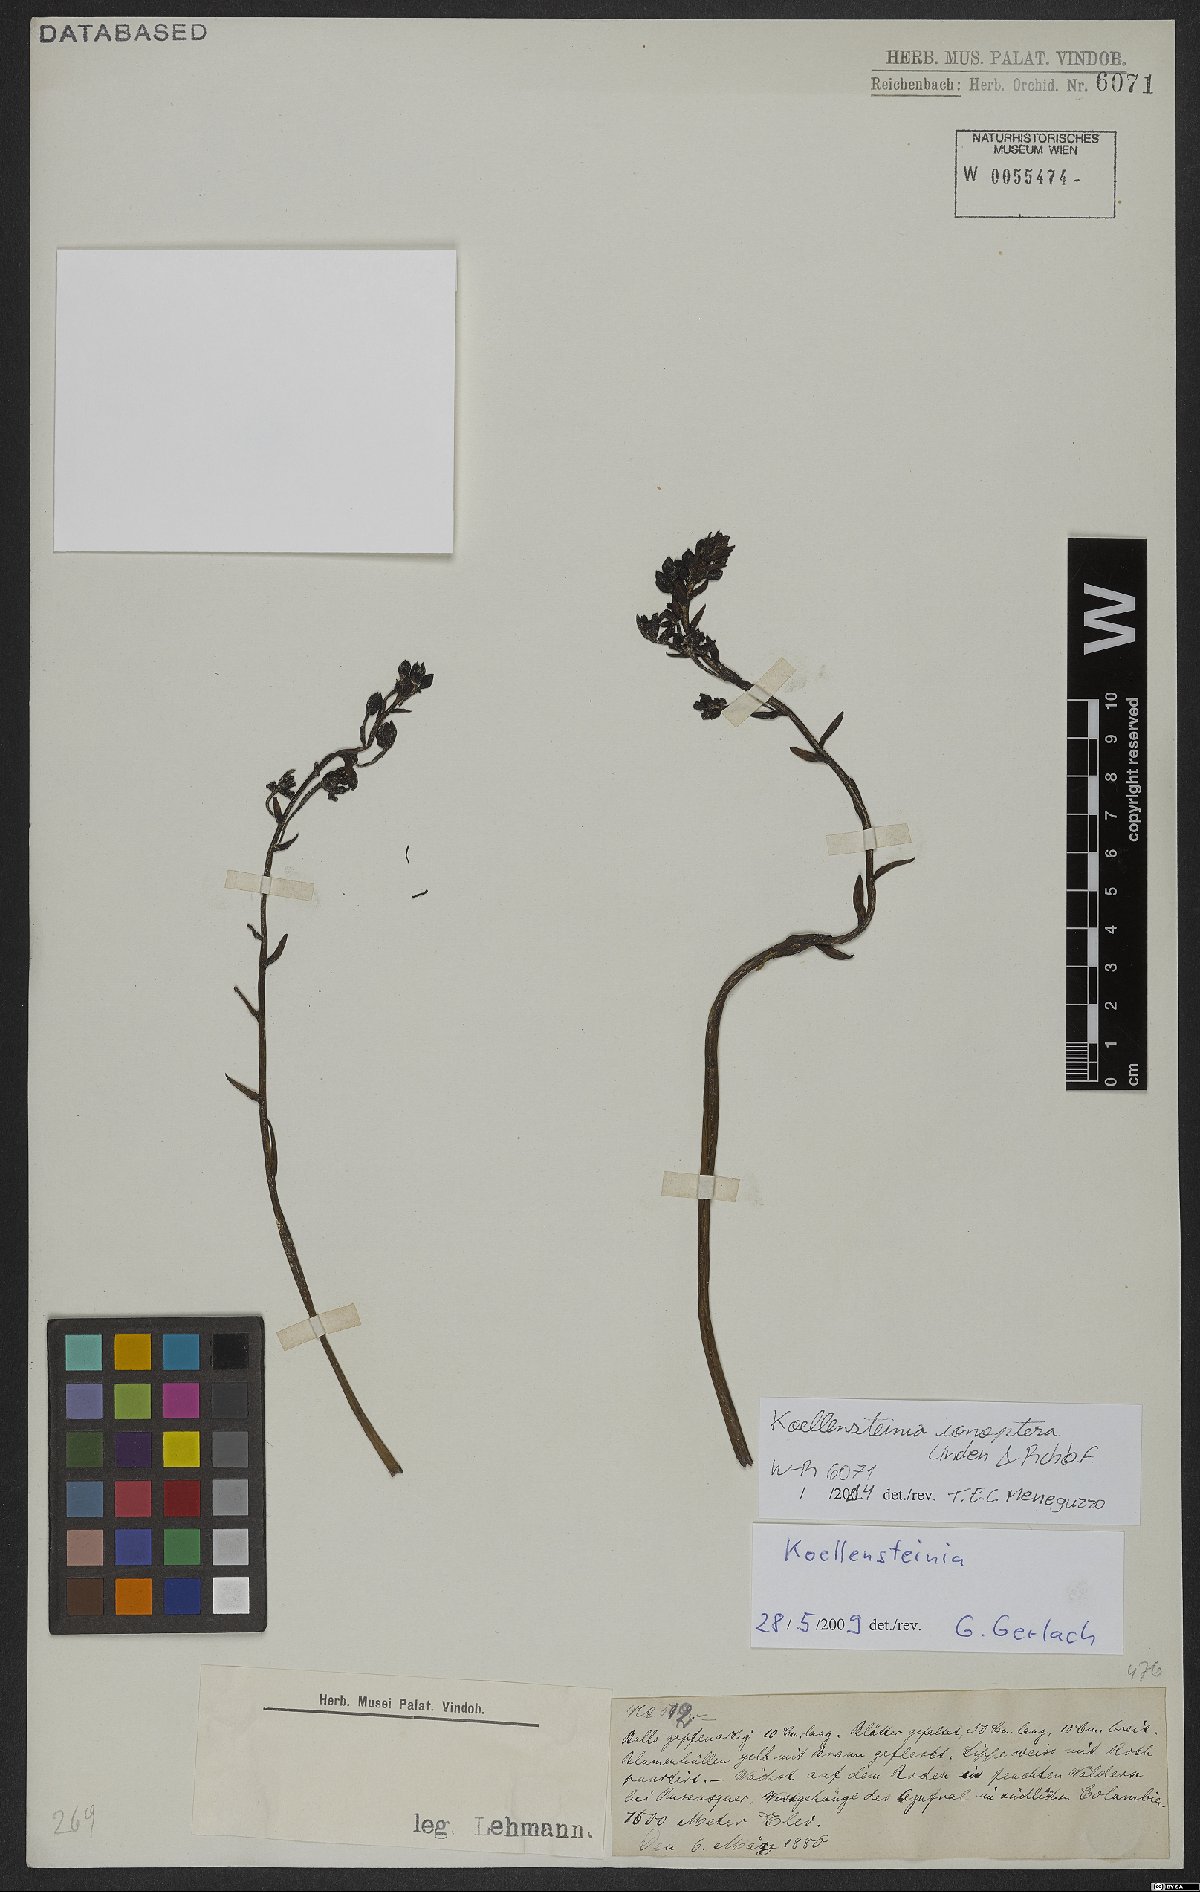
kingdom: Plantae
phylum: Tracheophyta
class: Liliopsida
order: Asparagales
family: Orchidaceae
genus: Koellensteinia
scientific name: Koellensteinia ionoptera
